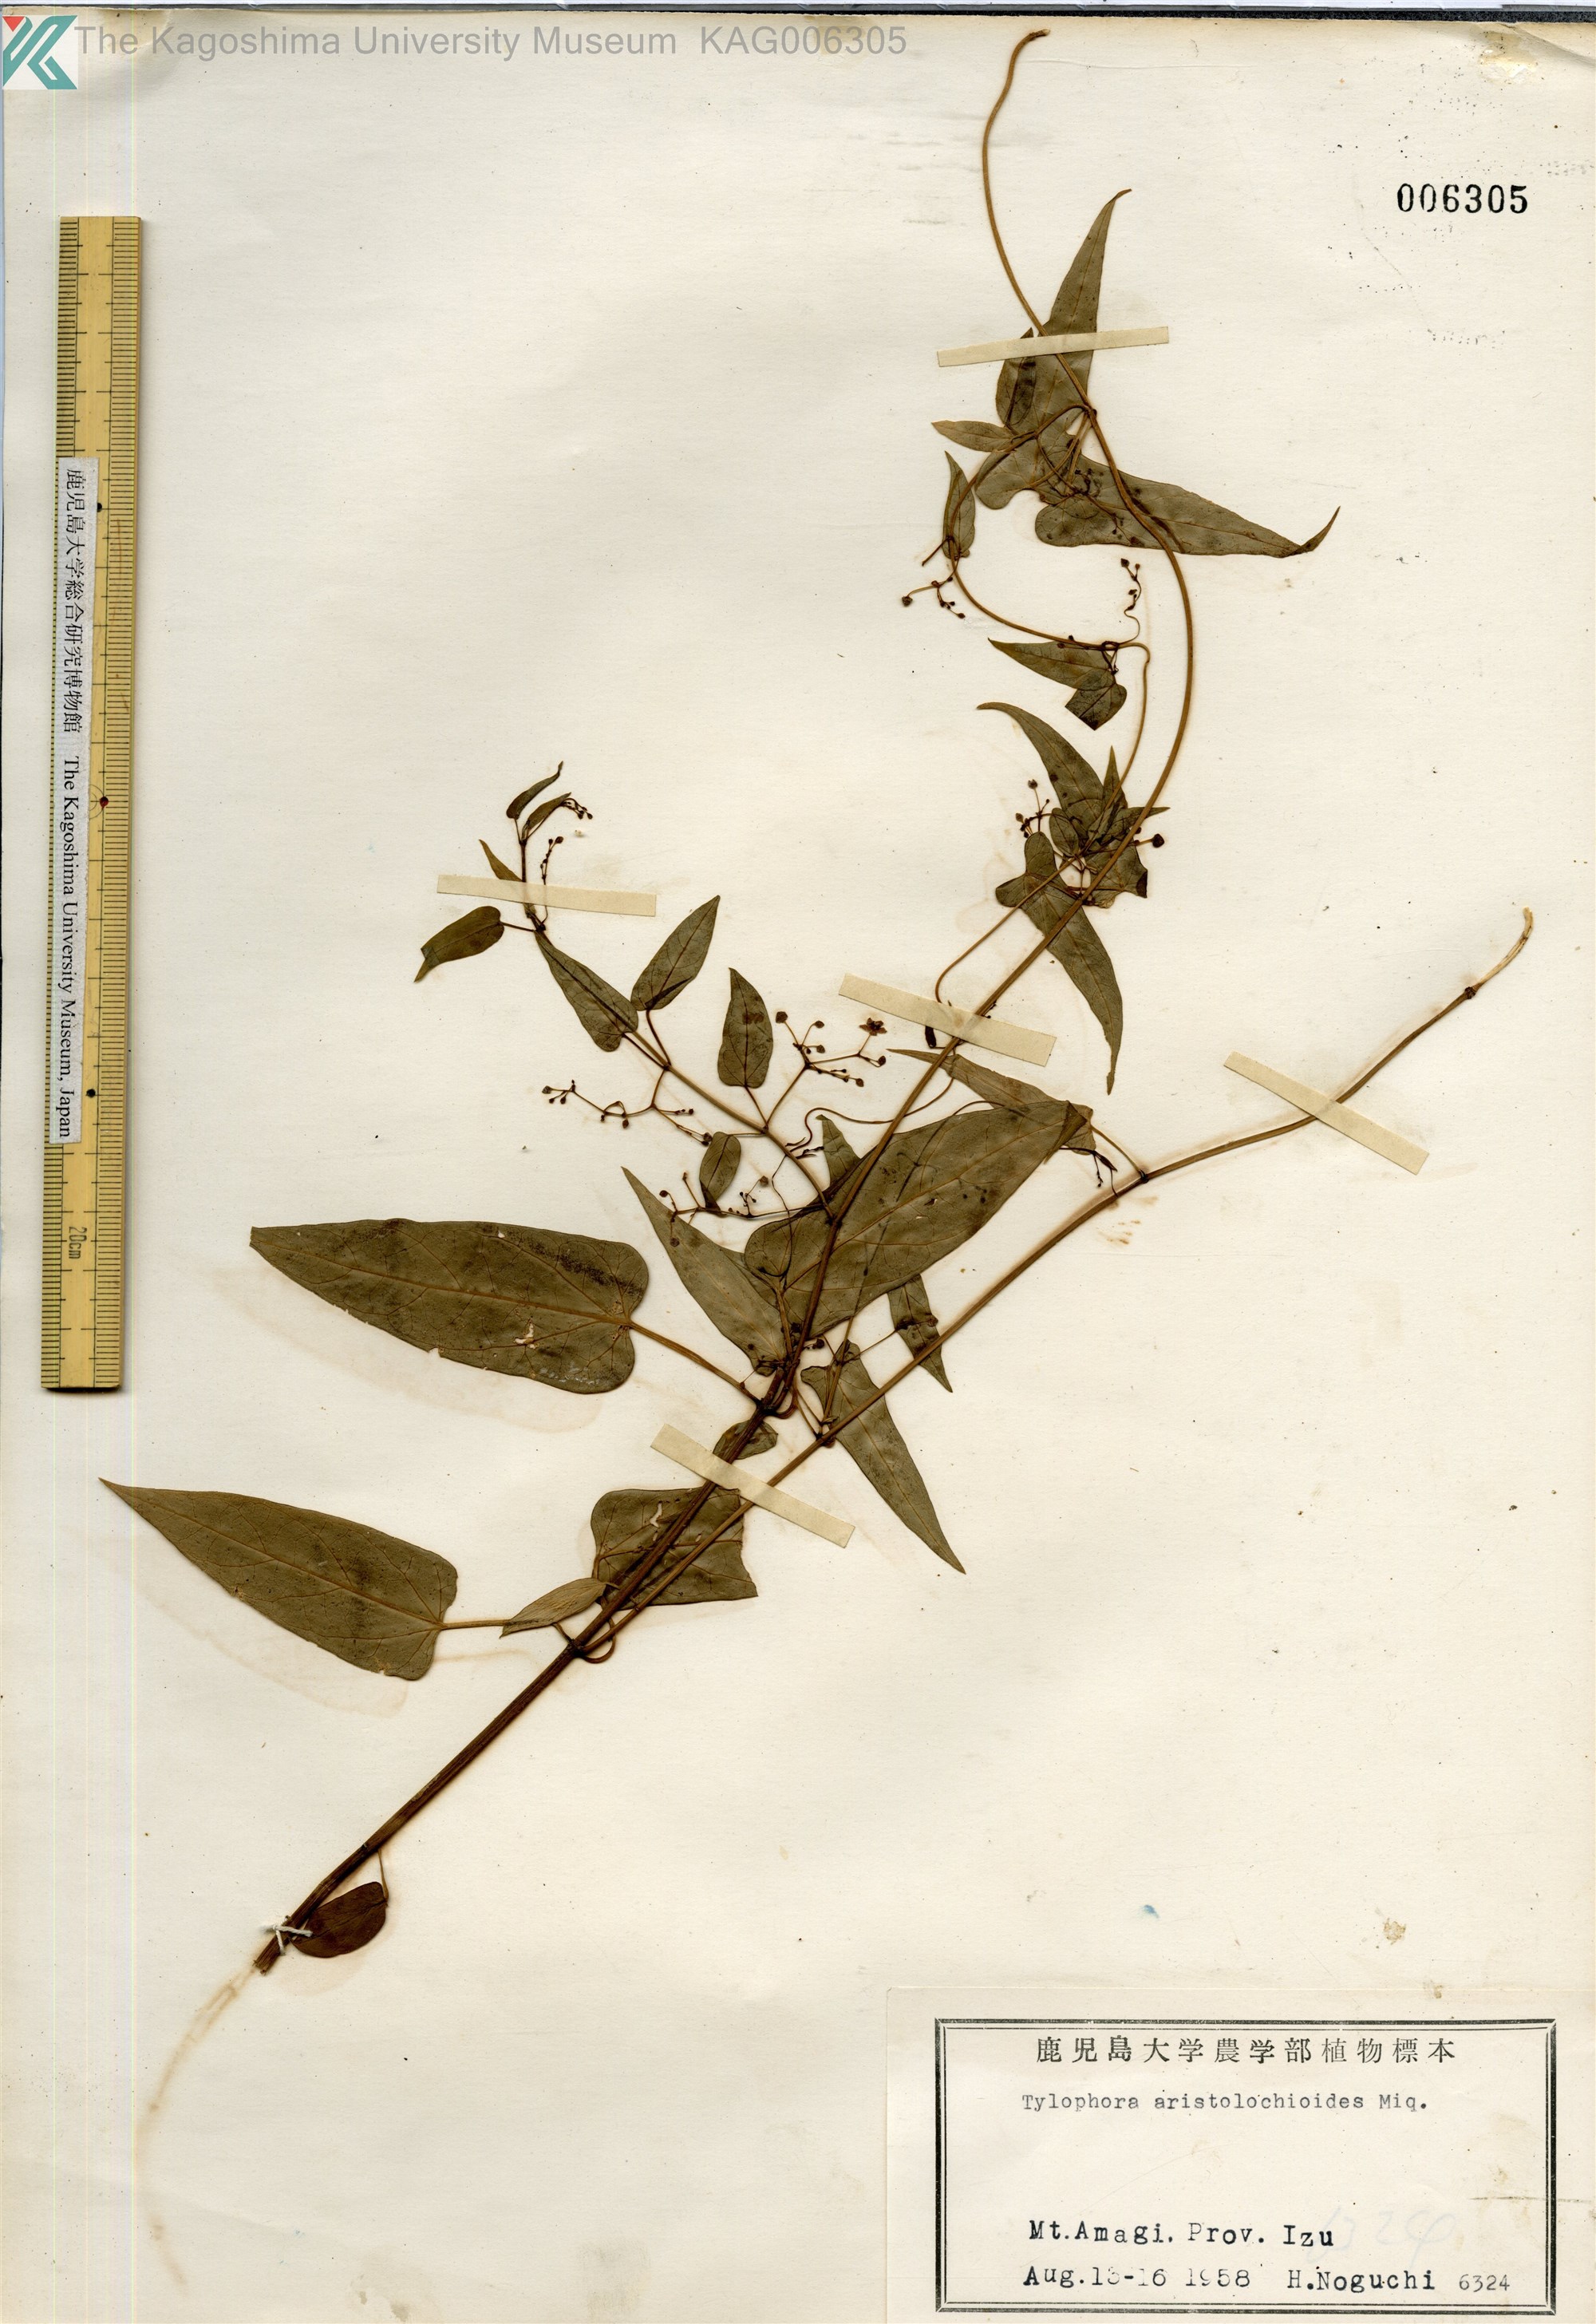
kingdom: Plantae
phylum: Tracheophyta
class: Magnoliopsida
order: Gentianales
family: Apocynaceae
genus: Vincetoxicum
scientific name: Vincetoxicum aristolochioides
